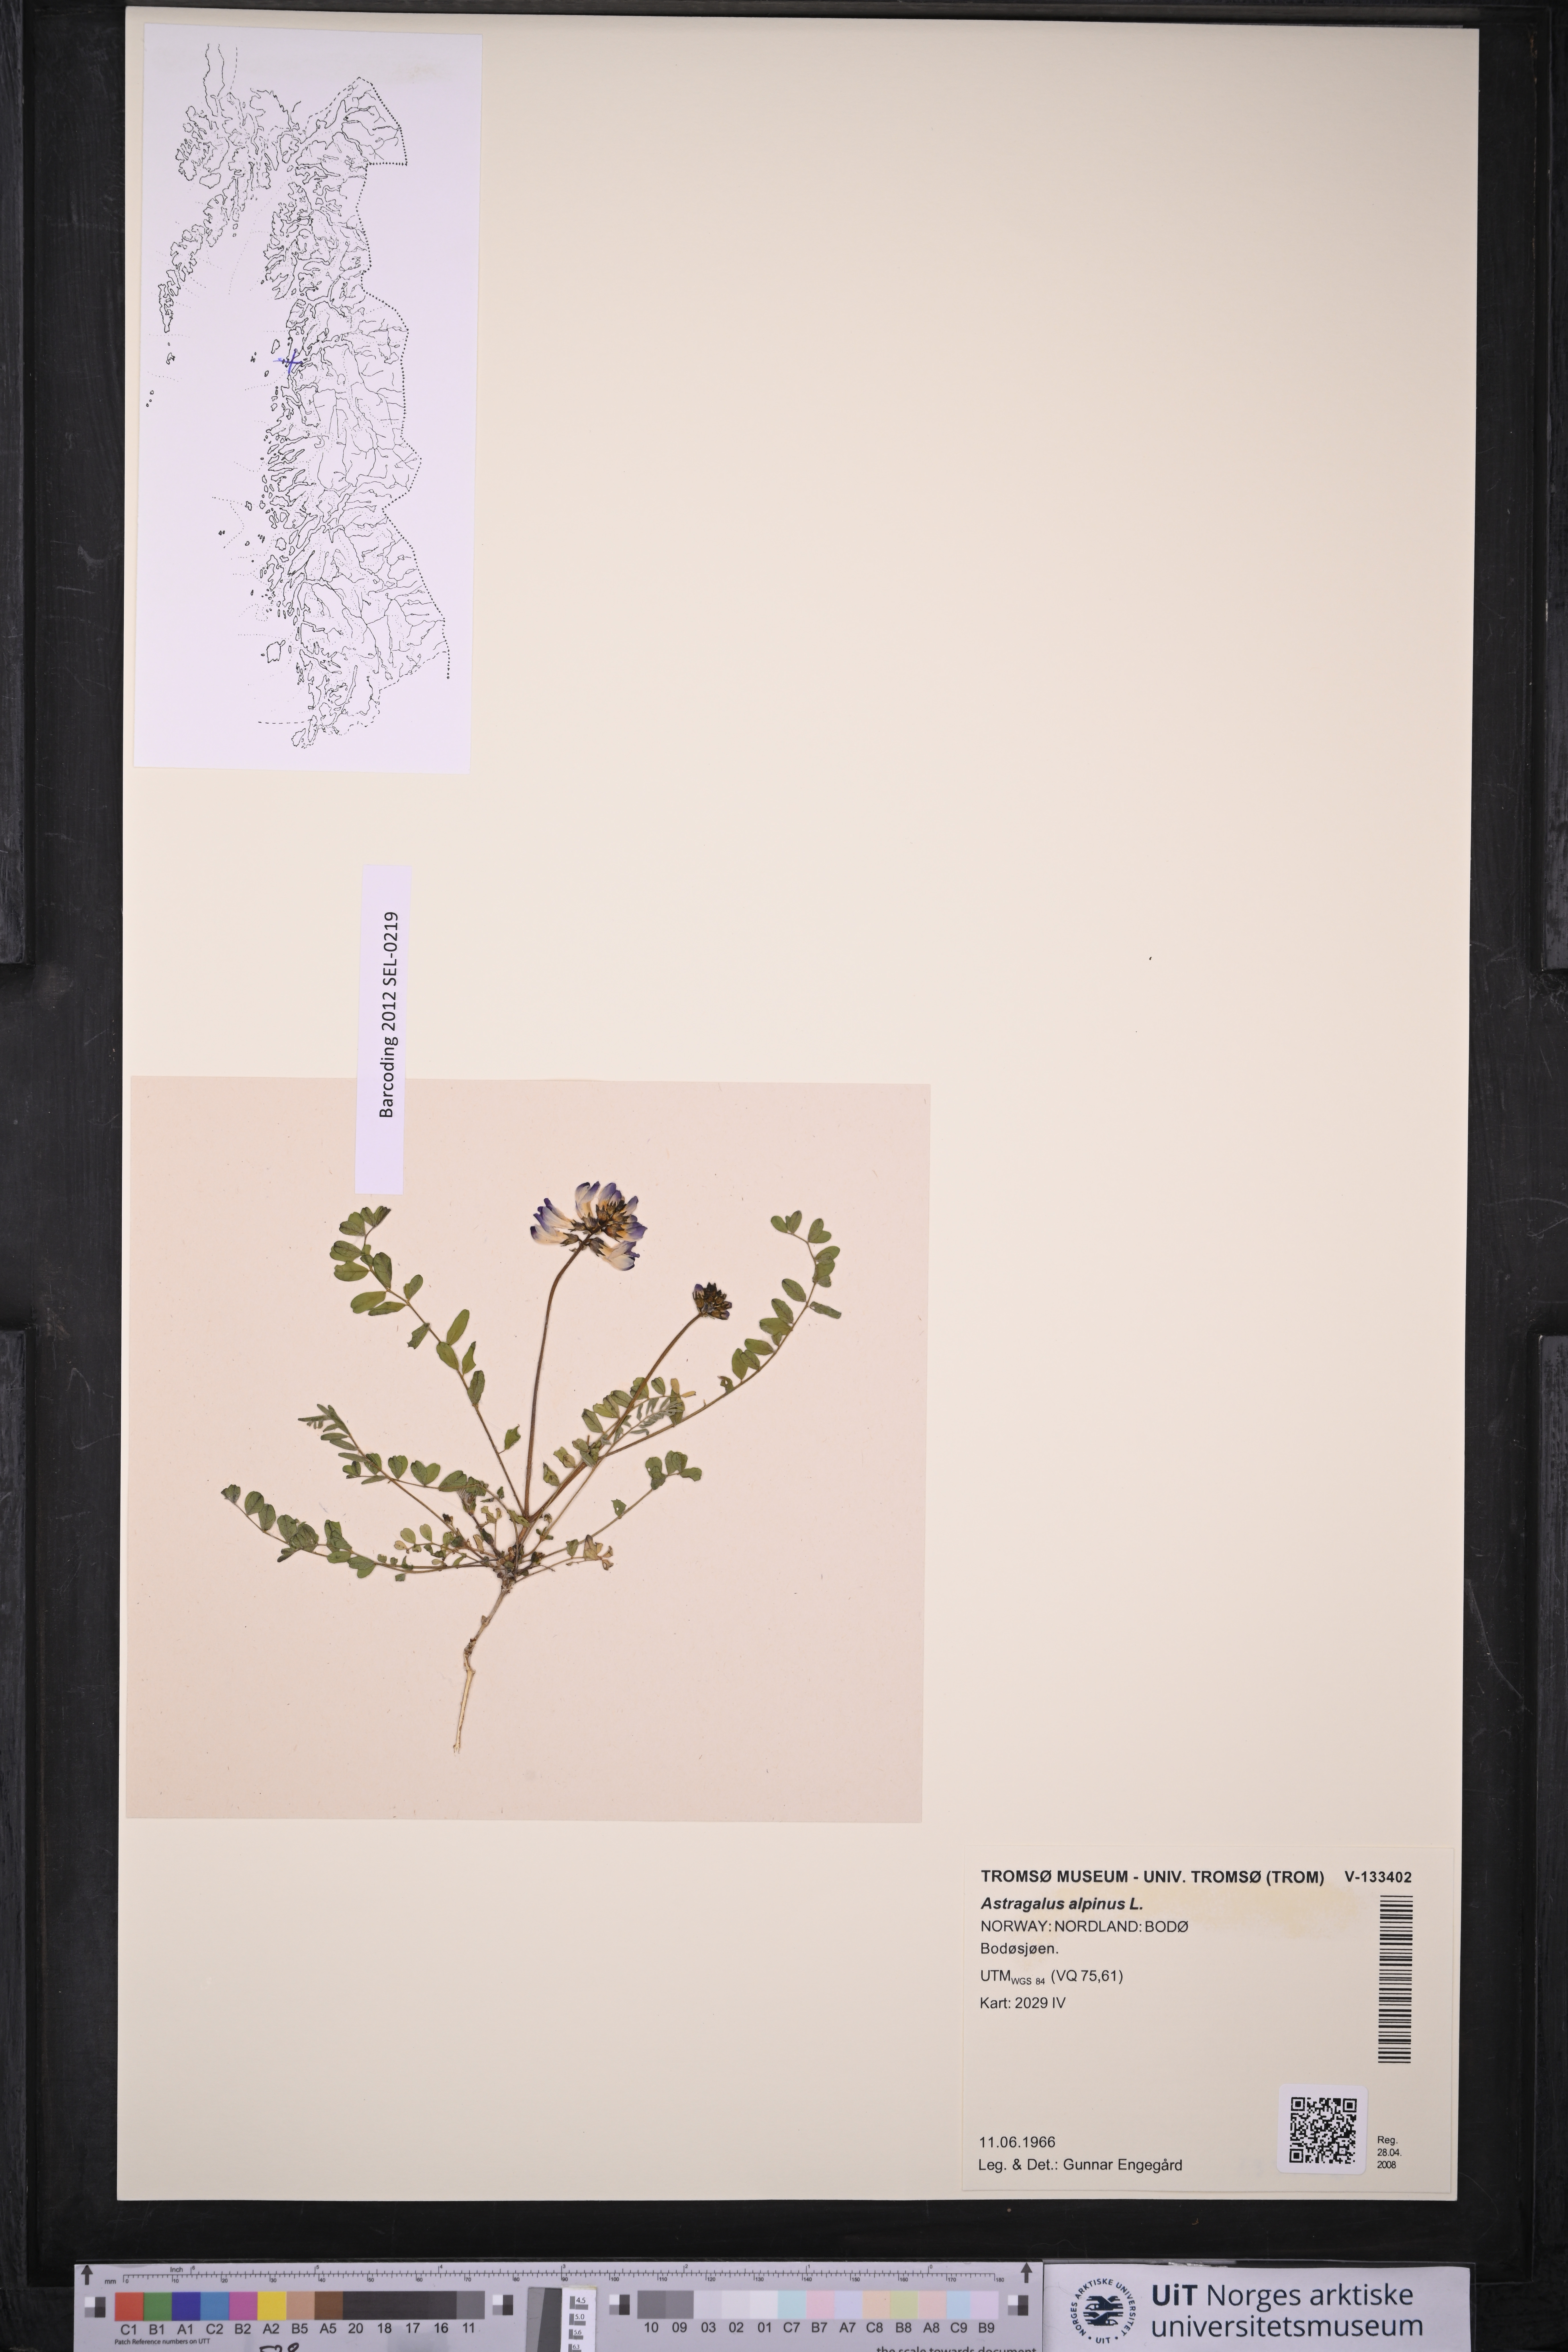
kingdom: Plantae
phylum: Tracheophyta
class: Magnoliopsida
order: Fabales
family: Fabaceae
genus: Astragalus
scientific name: Astragalus alpinus
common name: Alpine milk-vetch
